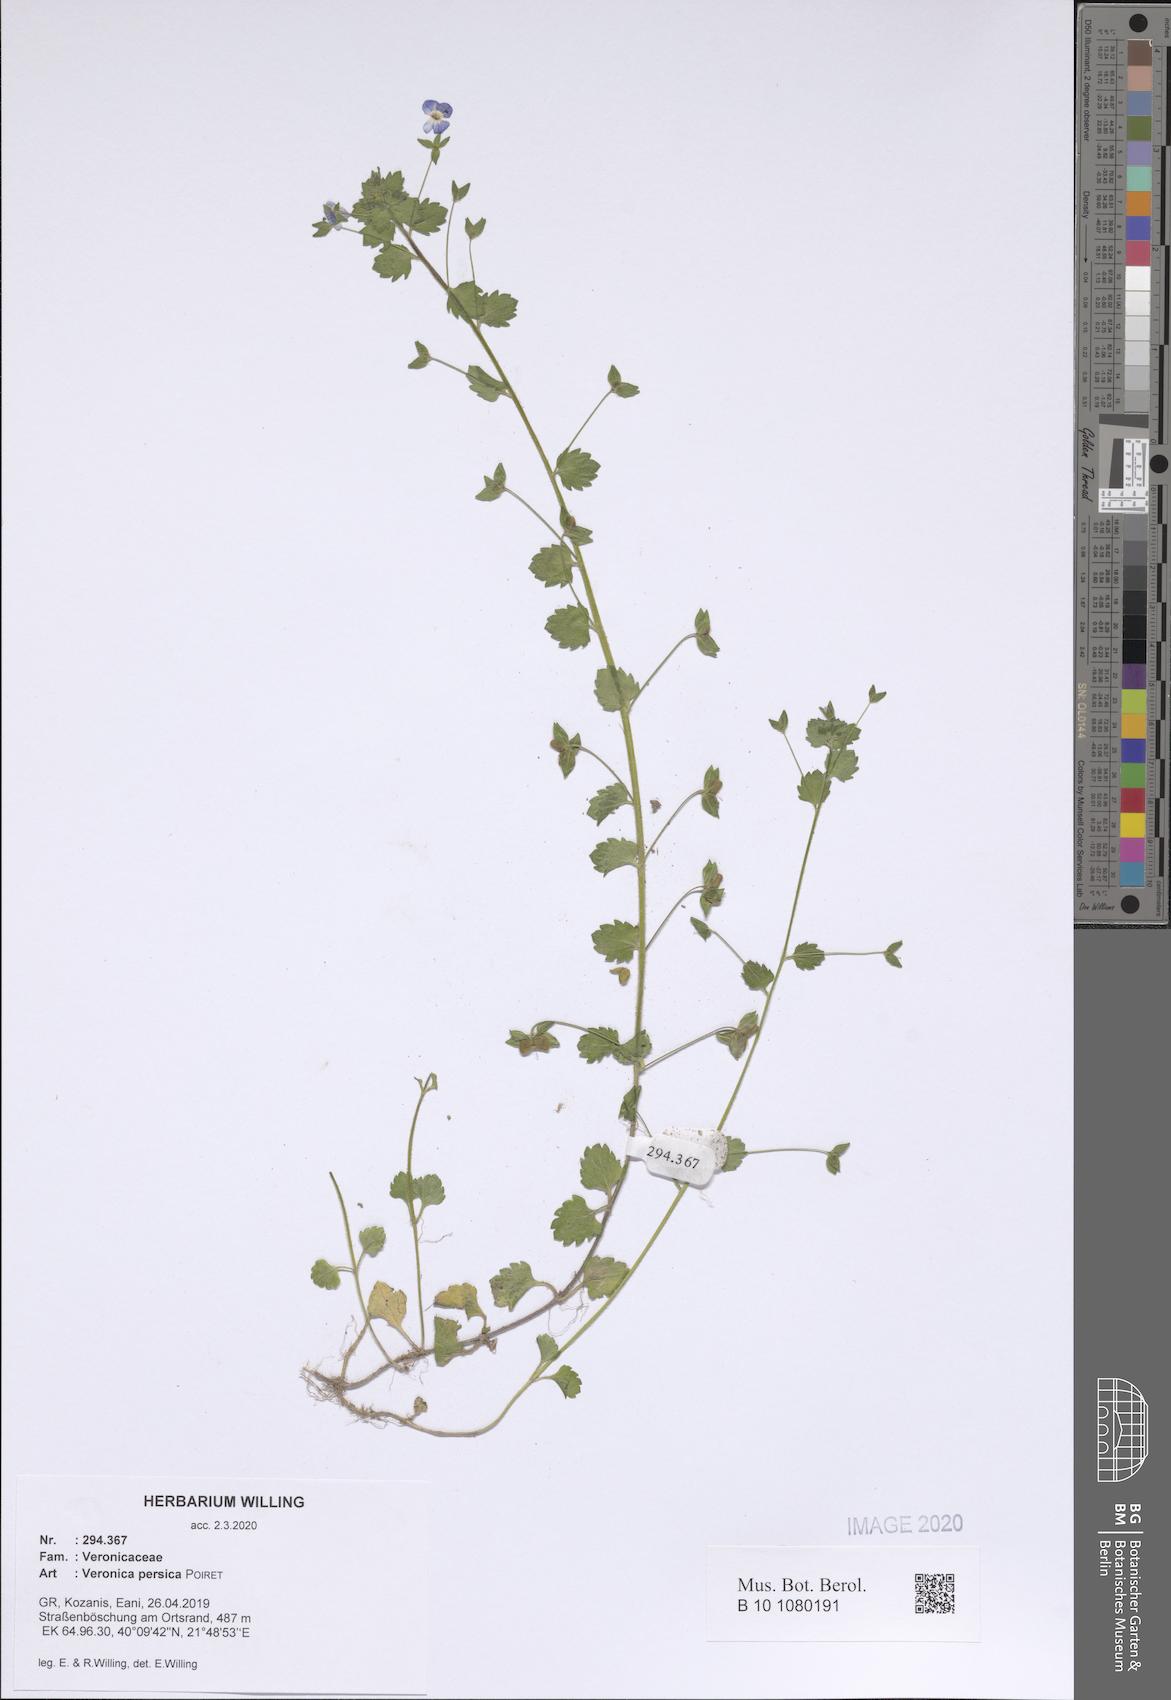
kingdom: Plantae
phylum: Tracheophyta
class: Magnoliopsida
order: Lamiales
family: Plantaginaceae
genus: Veronica
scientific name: Veronica persica
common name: Common field-speedwell
